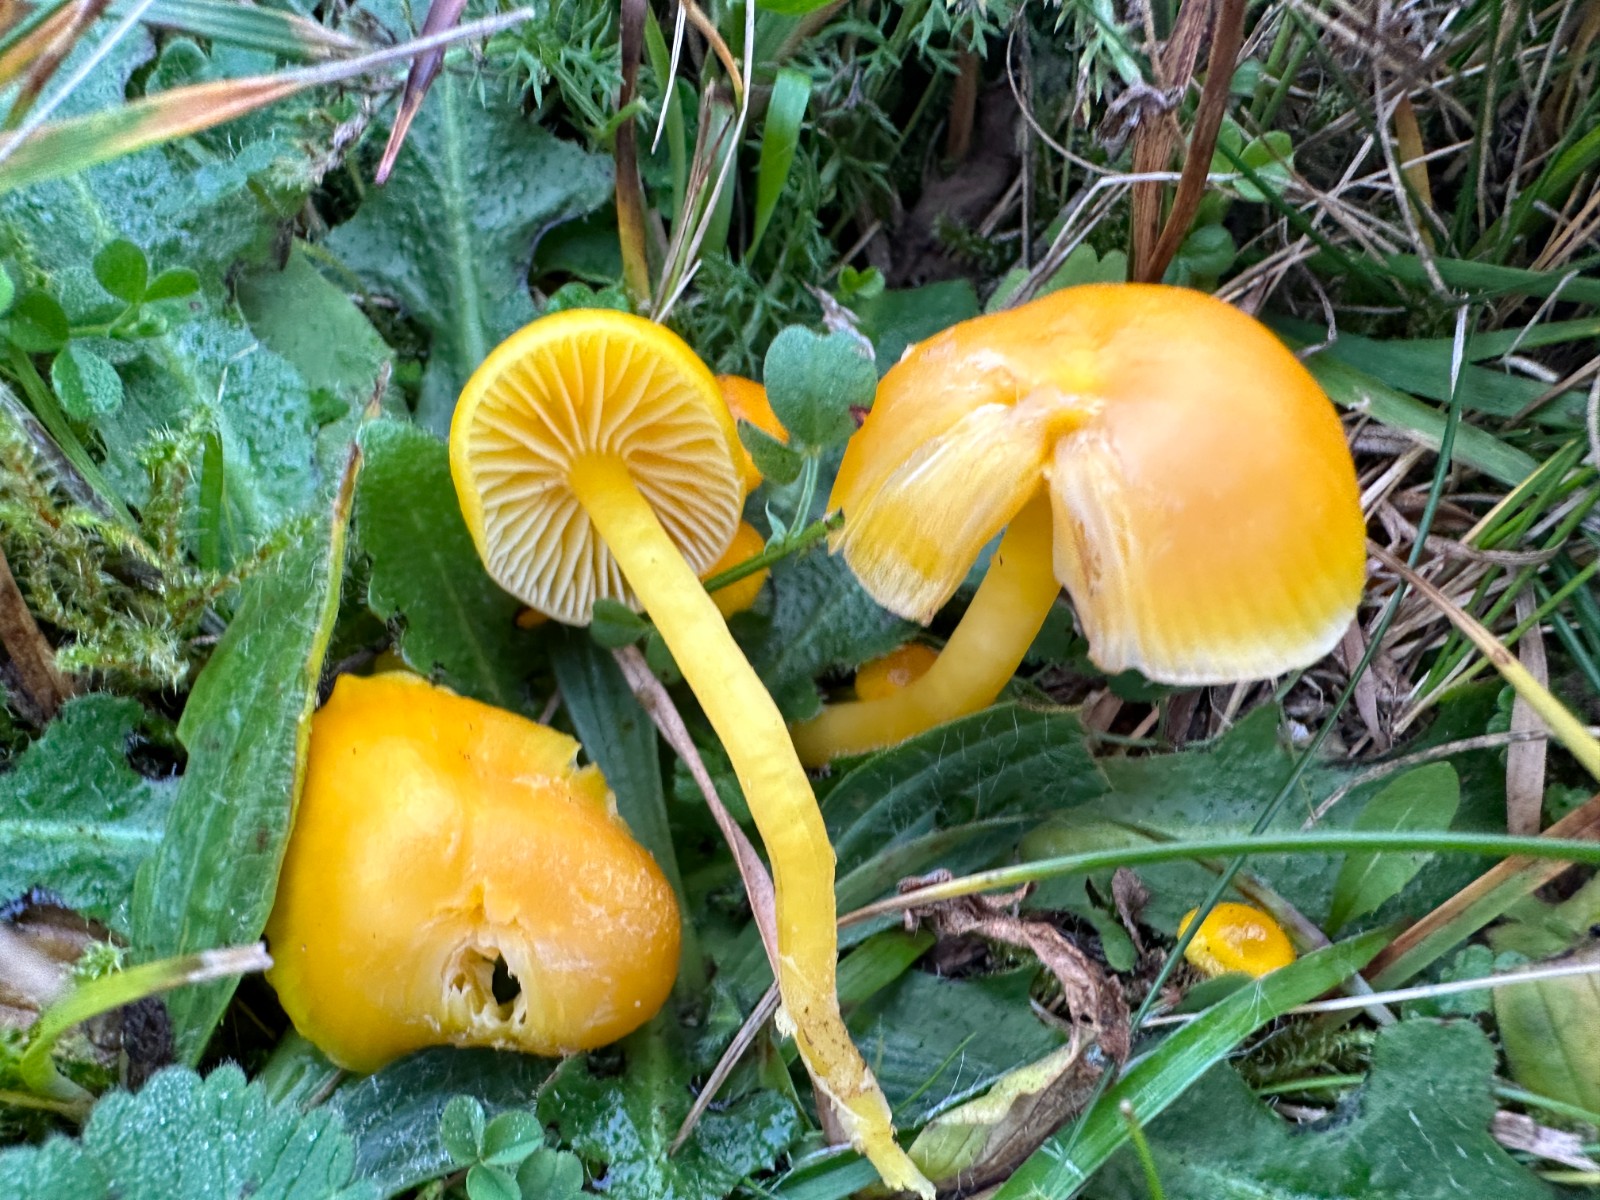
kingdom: Fungi
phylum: Basidiomycota
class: Agaricomycetes
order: Agaricales
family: Hygrophoraceae
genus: Hygrocybe
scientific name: Hygrocybe ceracea
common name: voksgul vokshat
